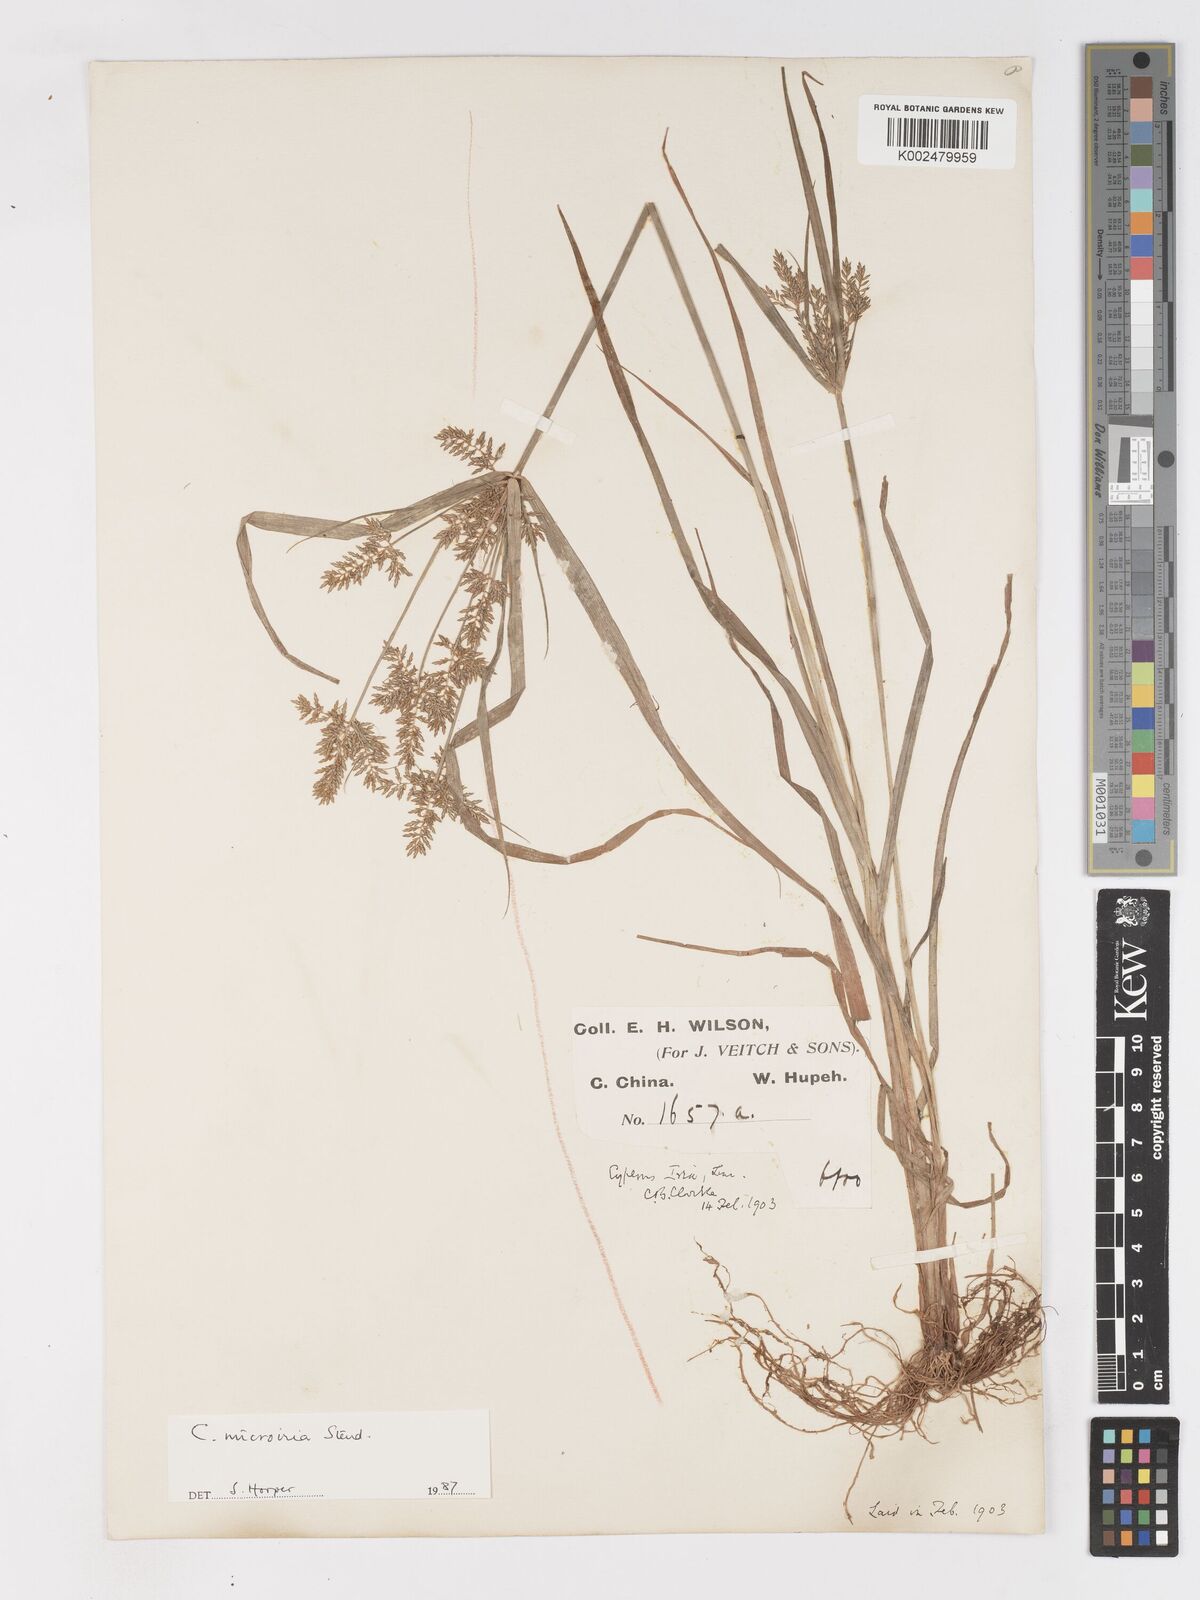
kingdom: Plantae
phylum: Tracheophyta
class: Liliopsida
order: Poales
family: Cyperaceae
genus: Cyperus
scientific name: Cyperus microiria
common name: Asian flatsedge
